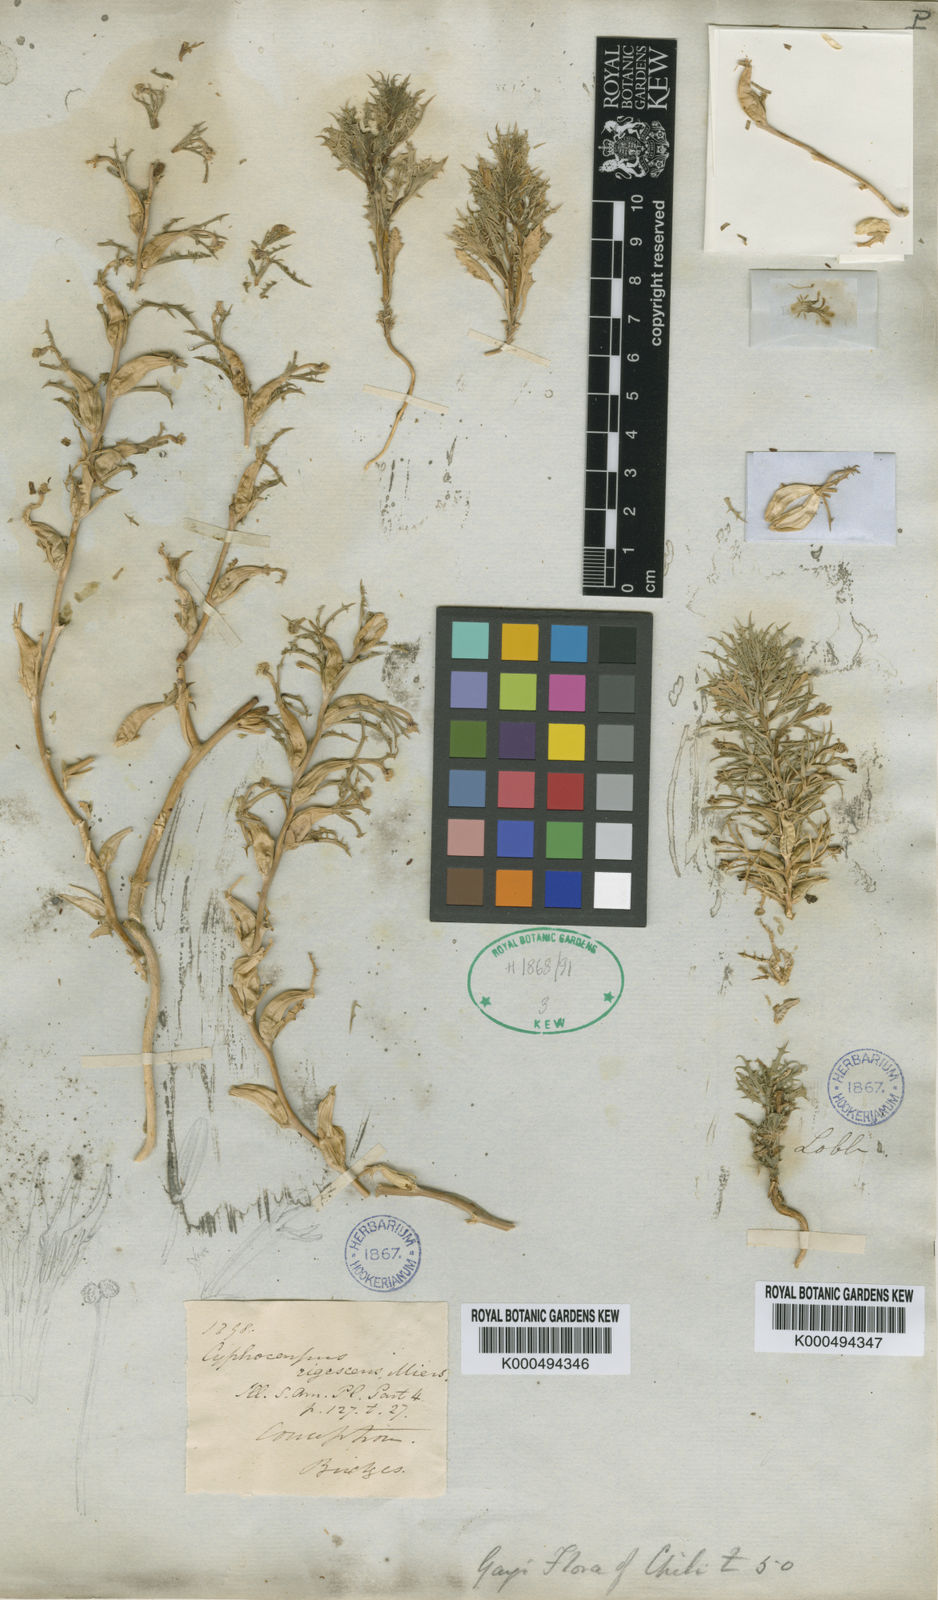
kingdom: Plantae
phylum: Tracheophyta
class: Magnoliopsida
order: Asterales
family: Campanulaceae
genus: Cyphocarpus
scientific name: Cyphocarpus rigescens
